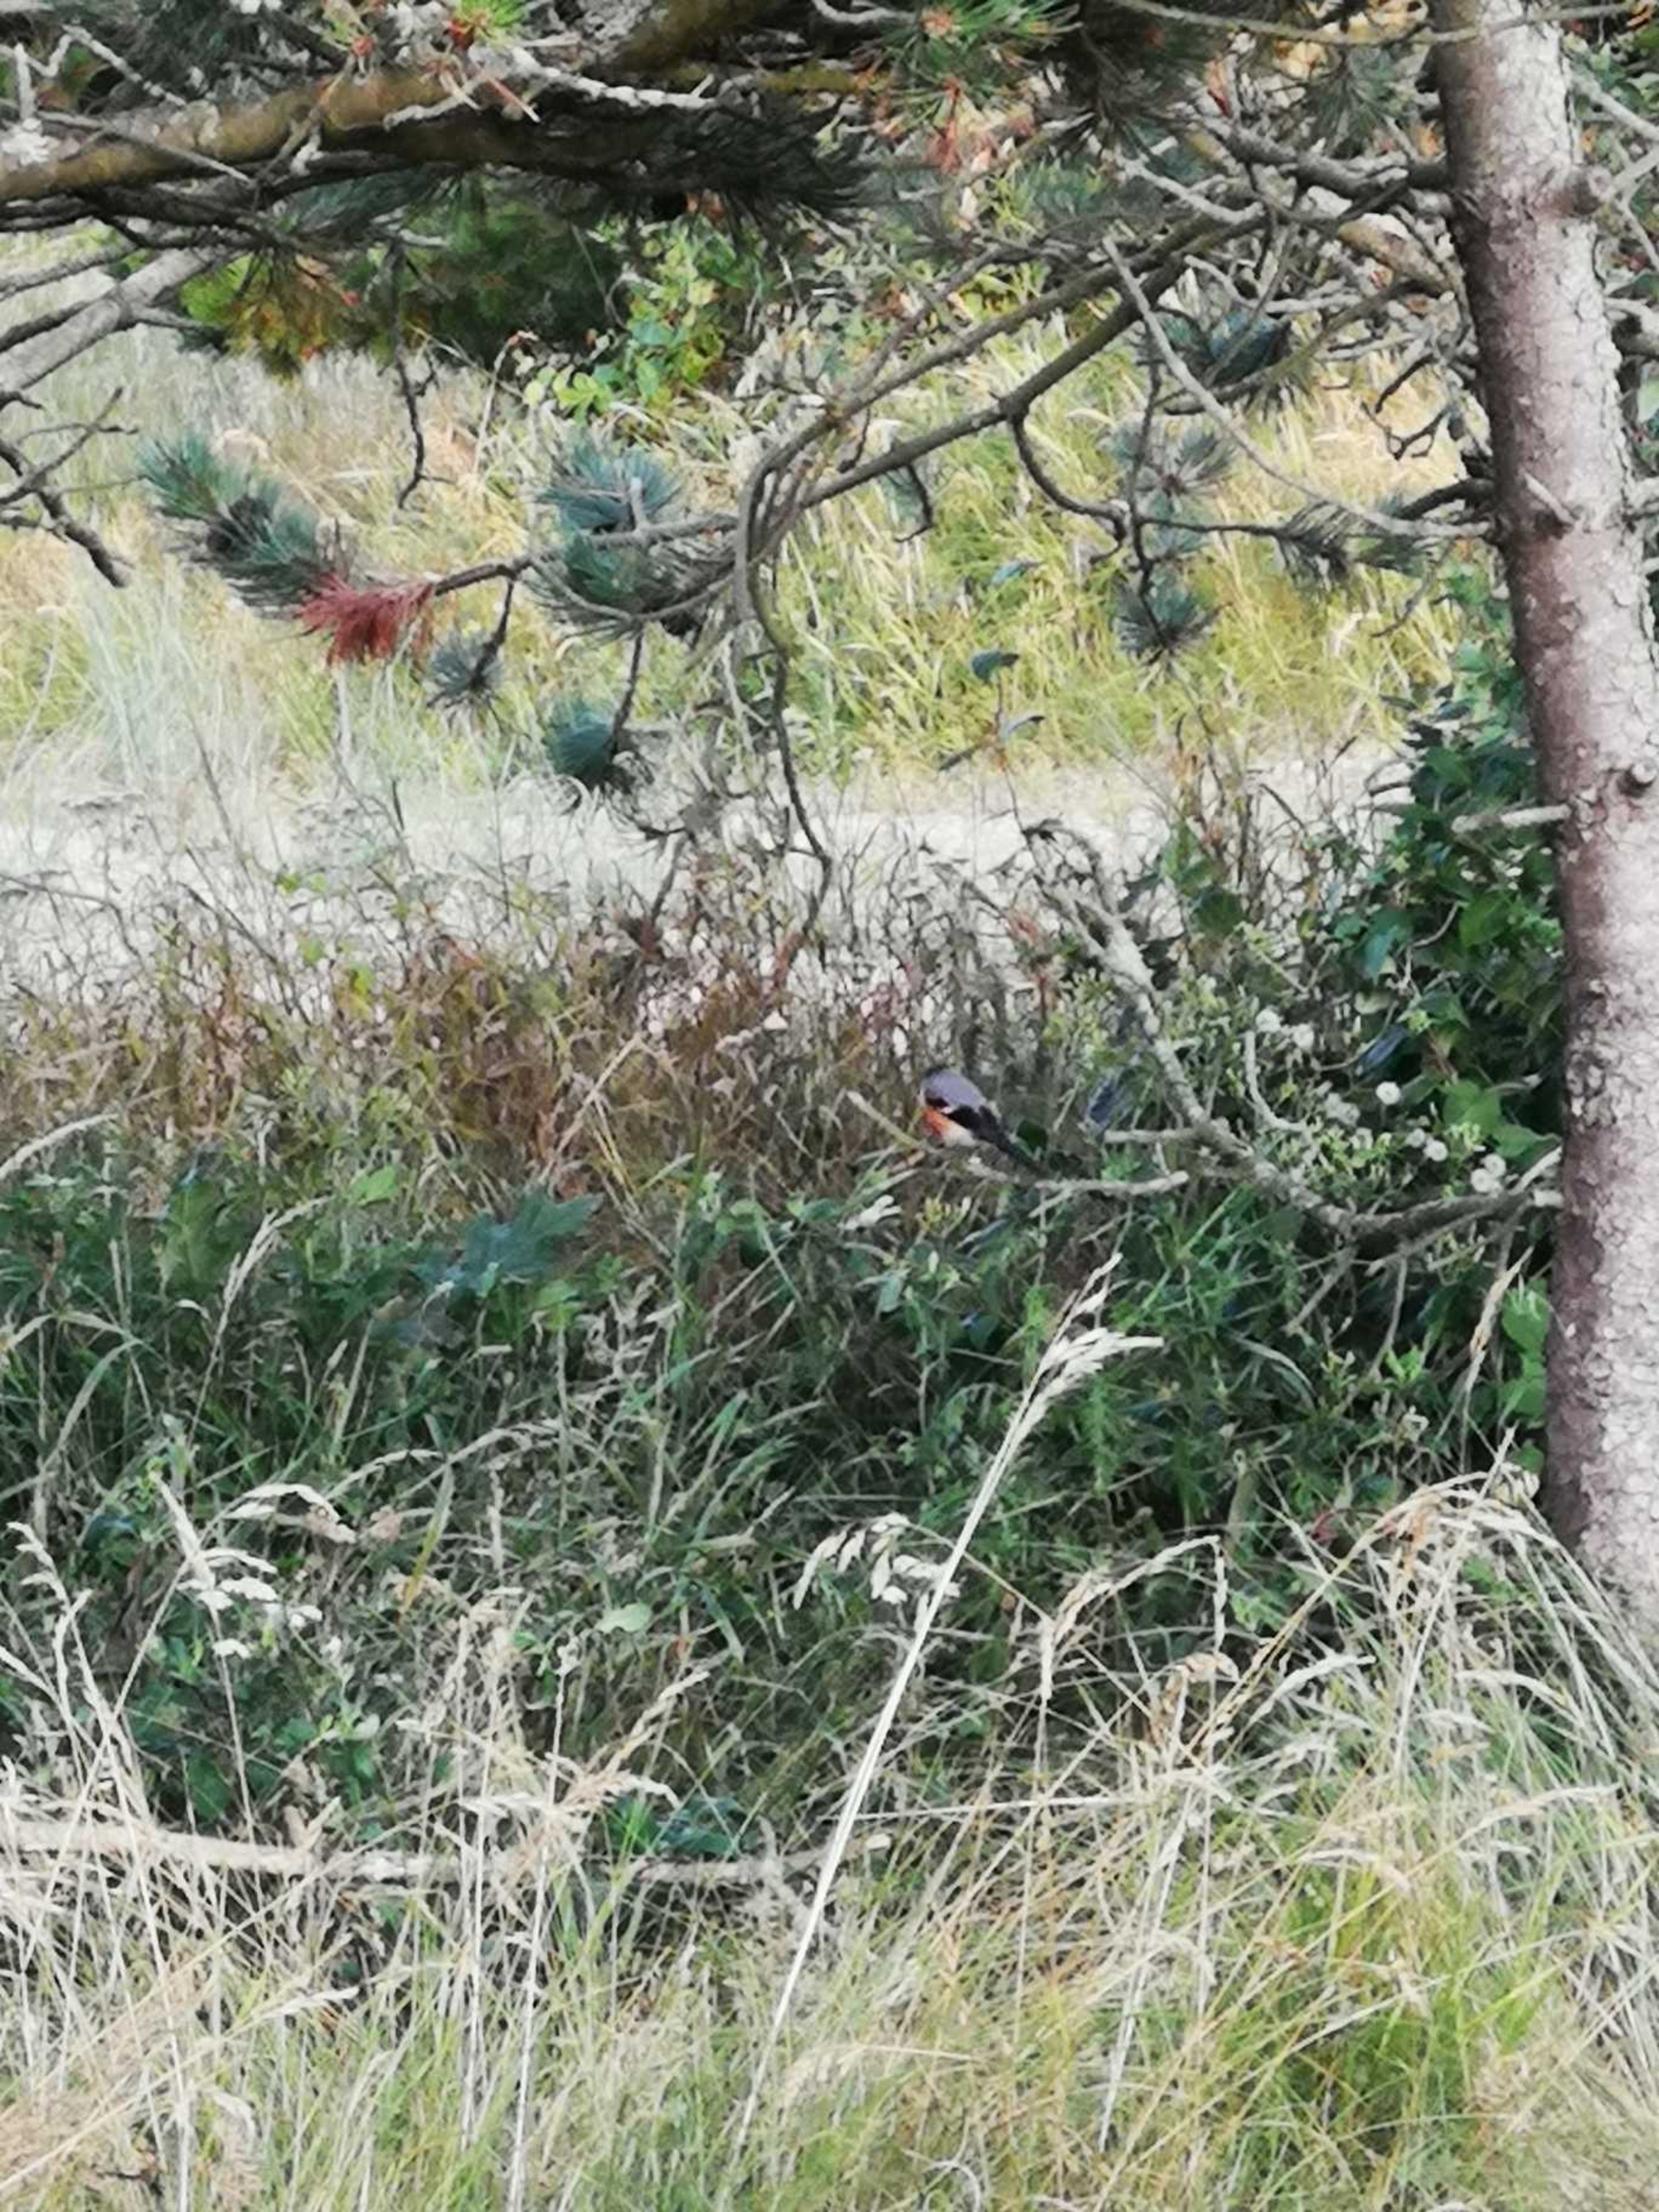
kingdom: Animalia
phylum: Chordata
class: Aves
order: Passeriformes
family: Fringillidae
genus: Pyrrhula
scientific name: Pyrrhula pyrrhula
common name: Dompap
